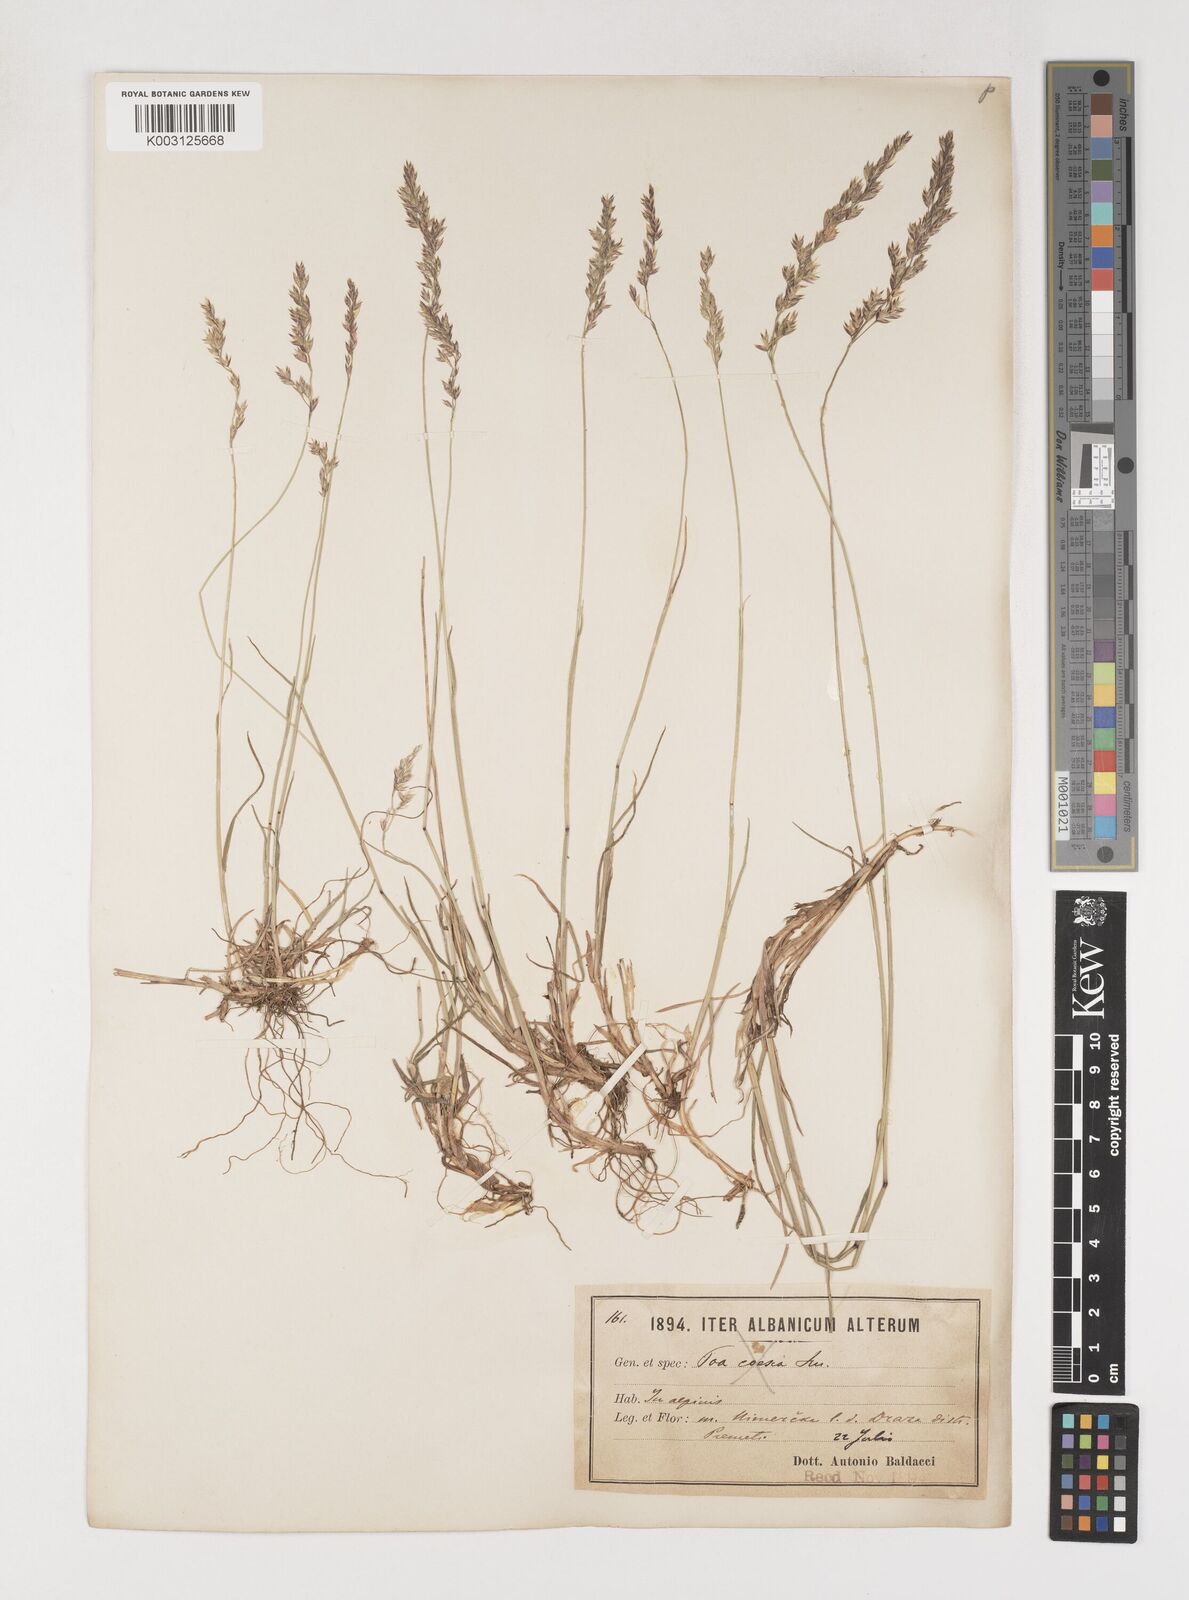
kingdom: Plantae
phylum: Tracheophyta
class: Liliopsida
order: Poales
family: Poaceae
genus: Poa
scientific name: Poa
